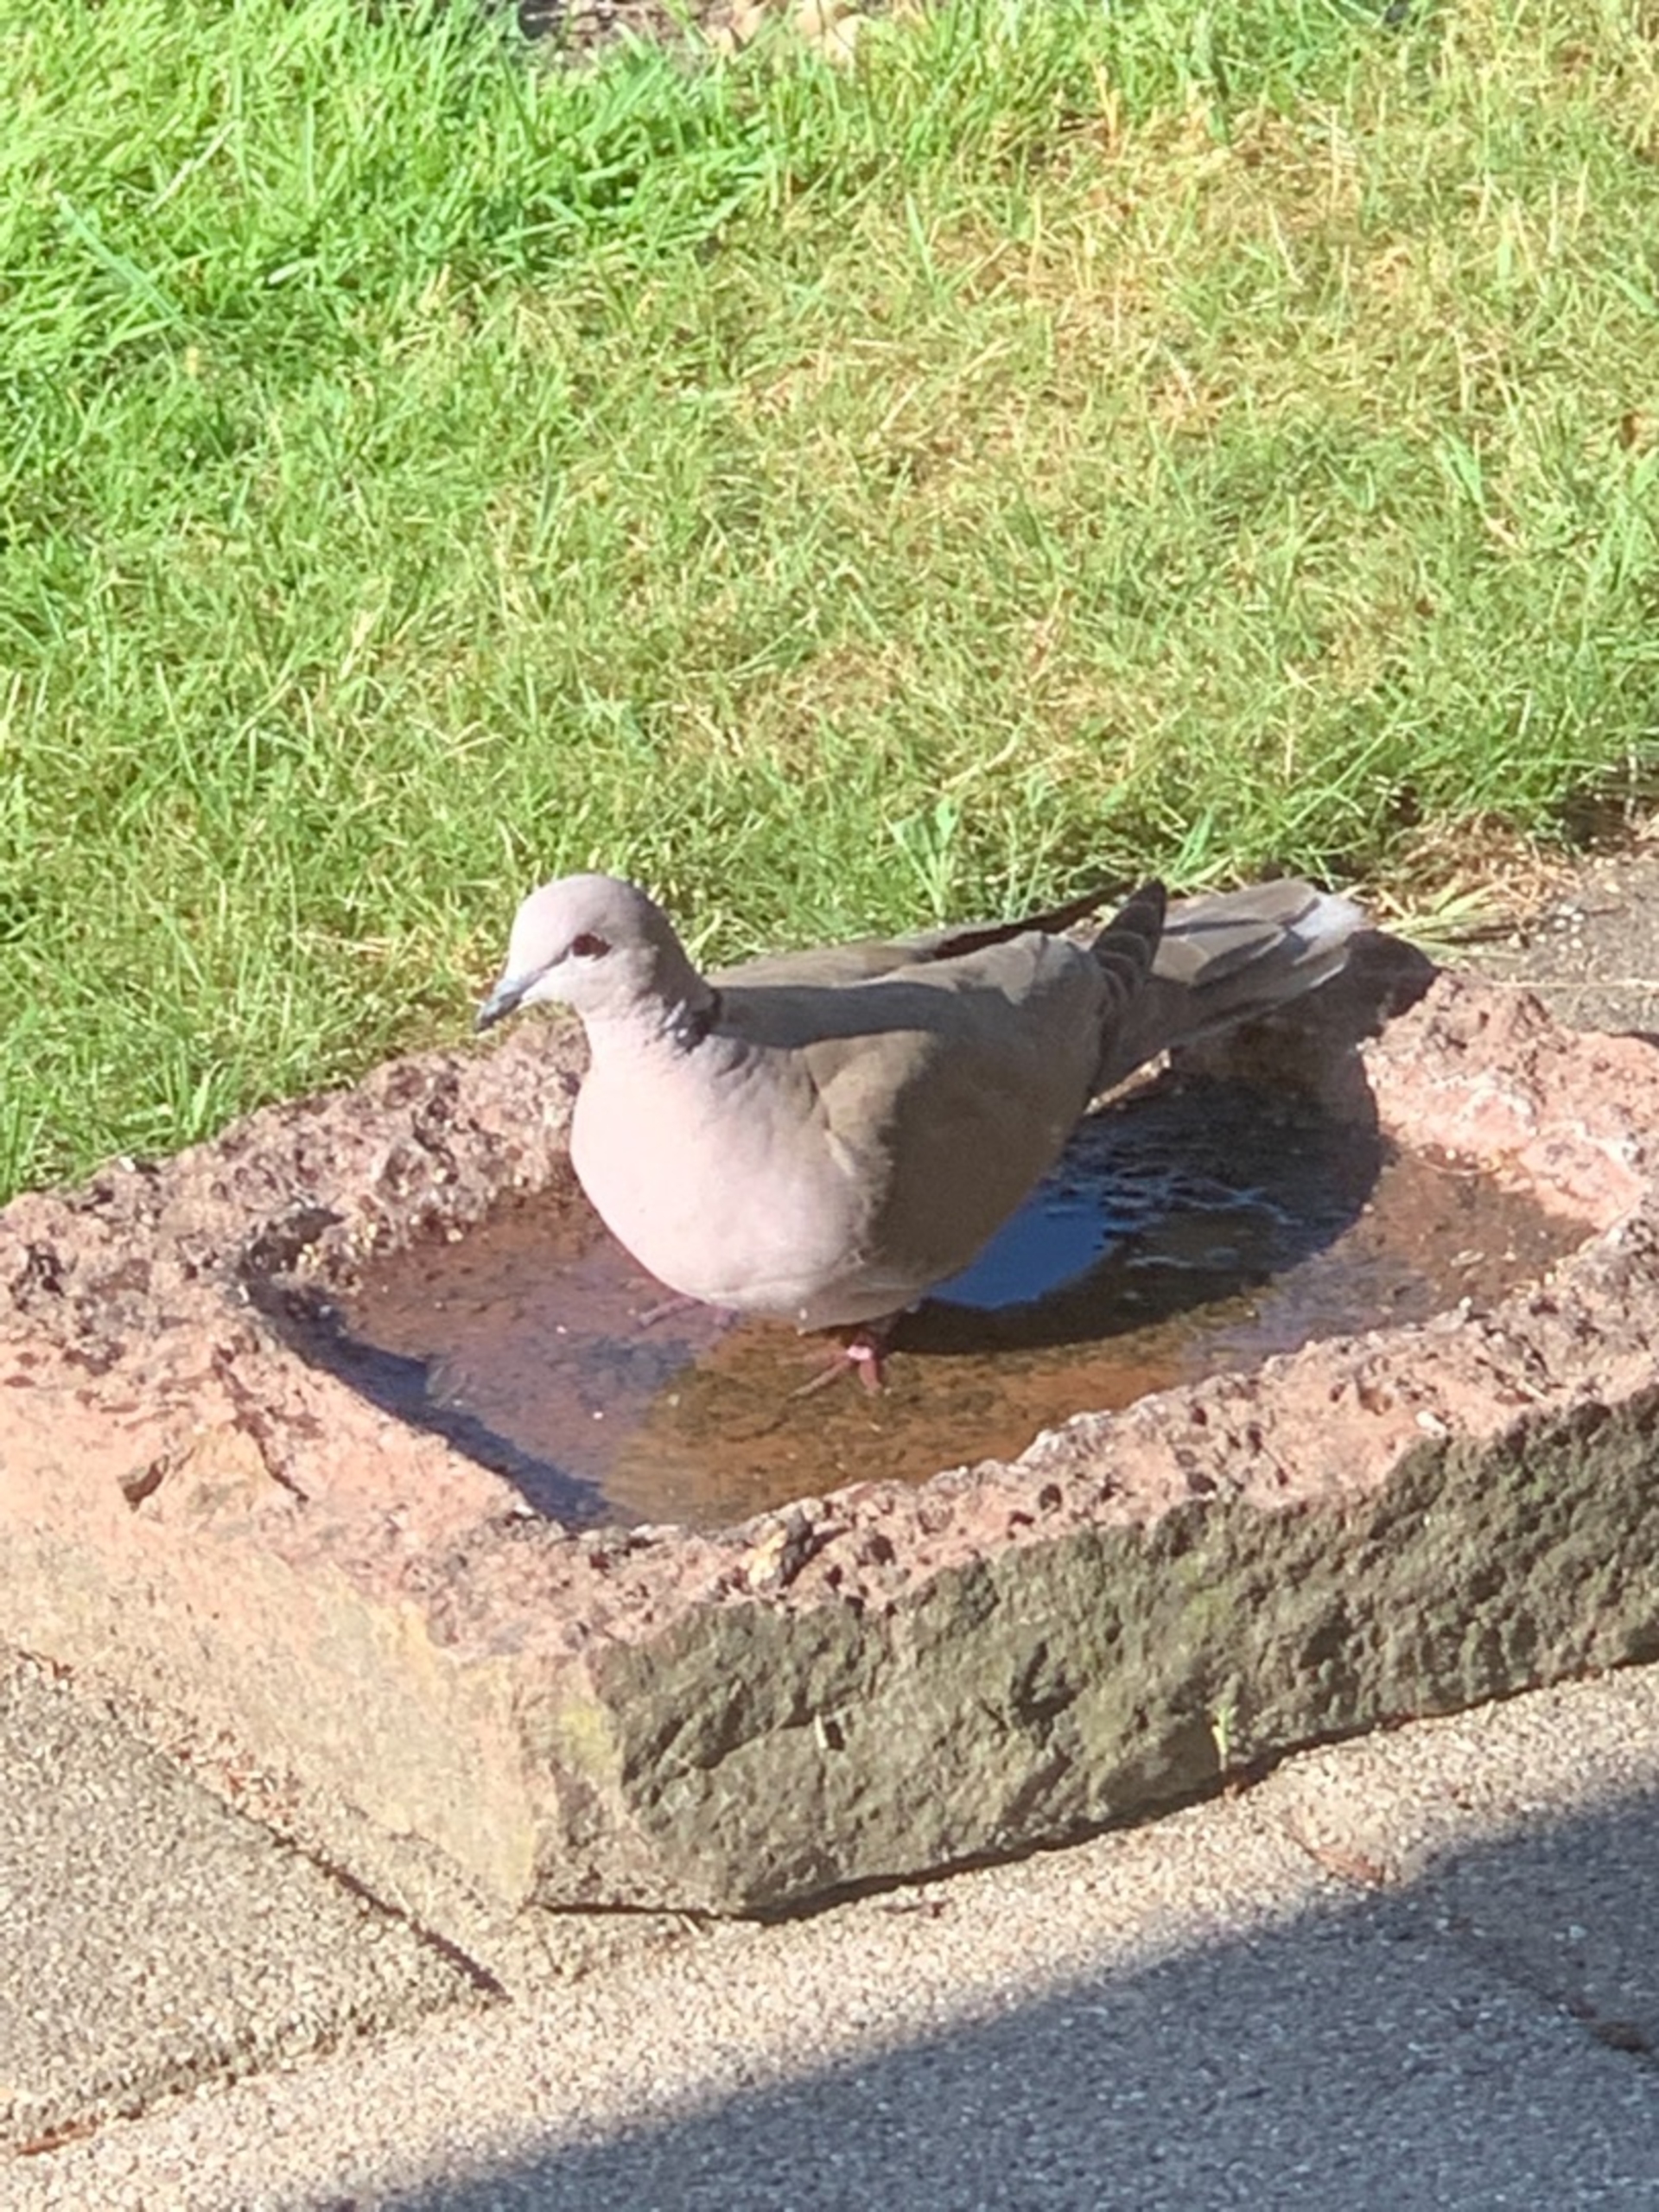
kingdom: Animalia
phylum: Chordata
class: Aves
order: Columbiformes
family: Columbidae
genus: Streptopelia
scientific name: Streptopelia decaocto
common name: Tyrkerdue
